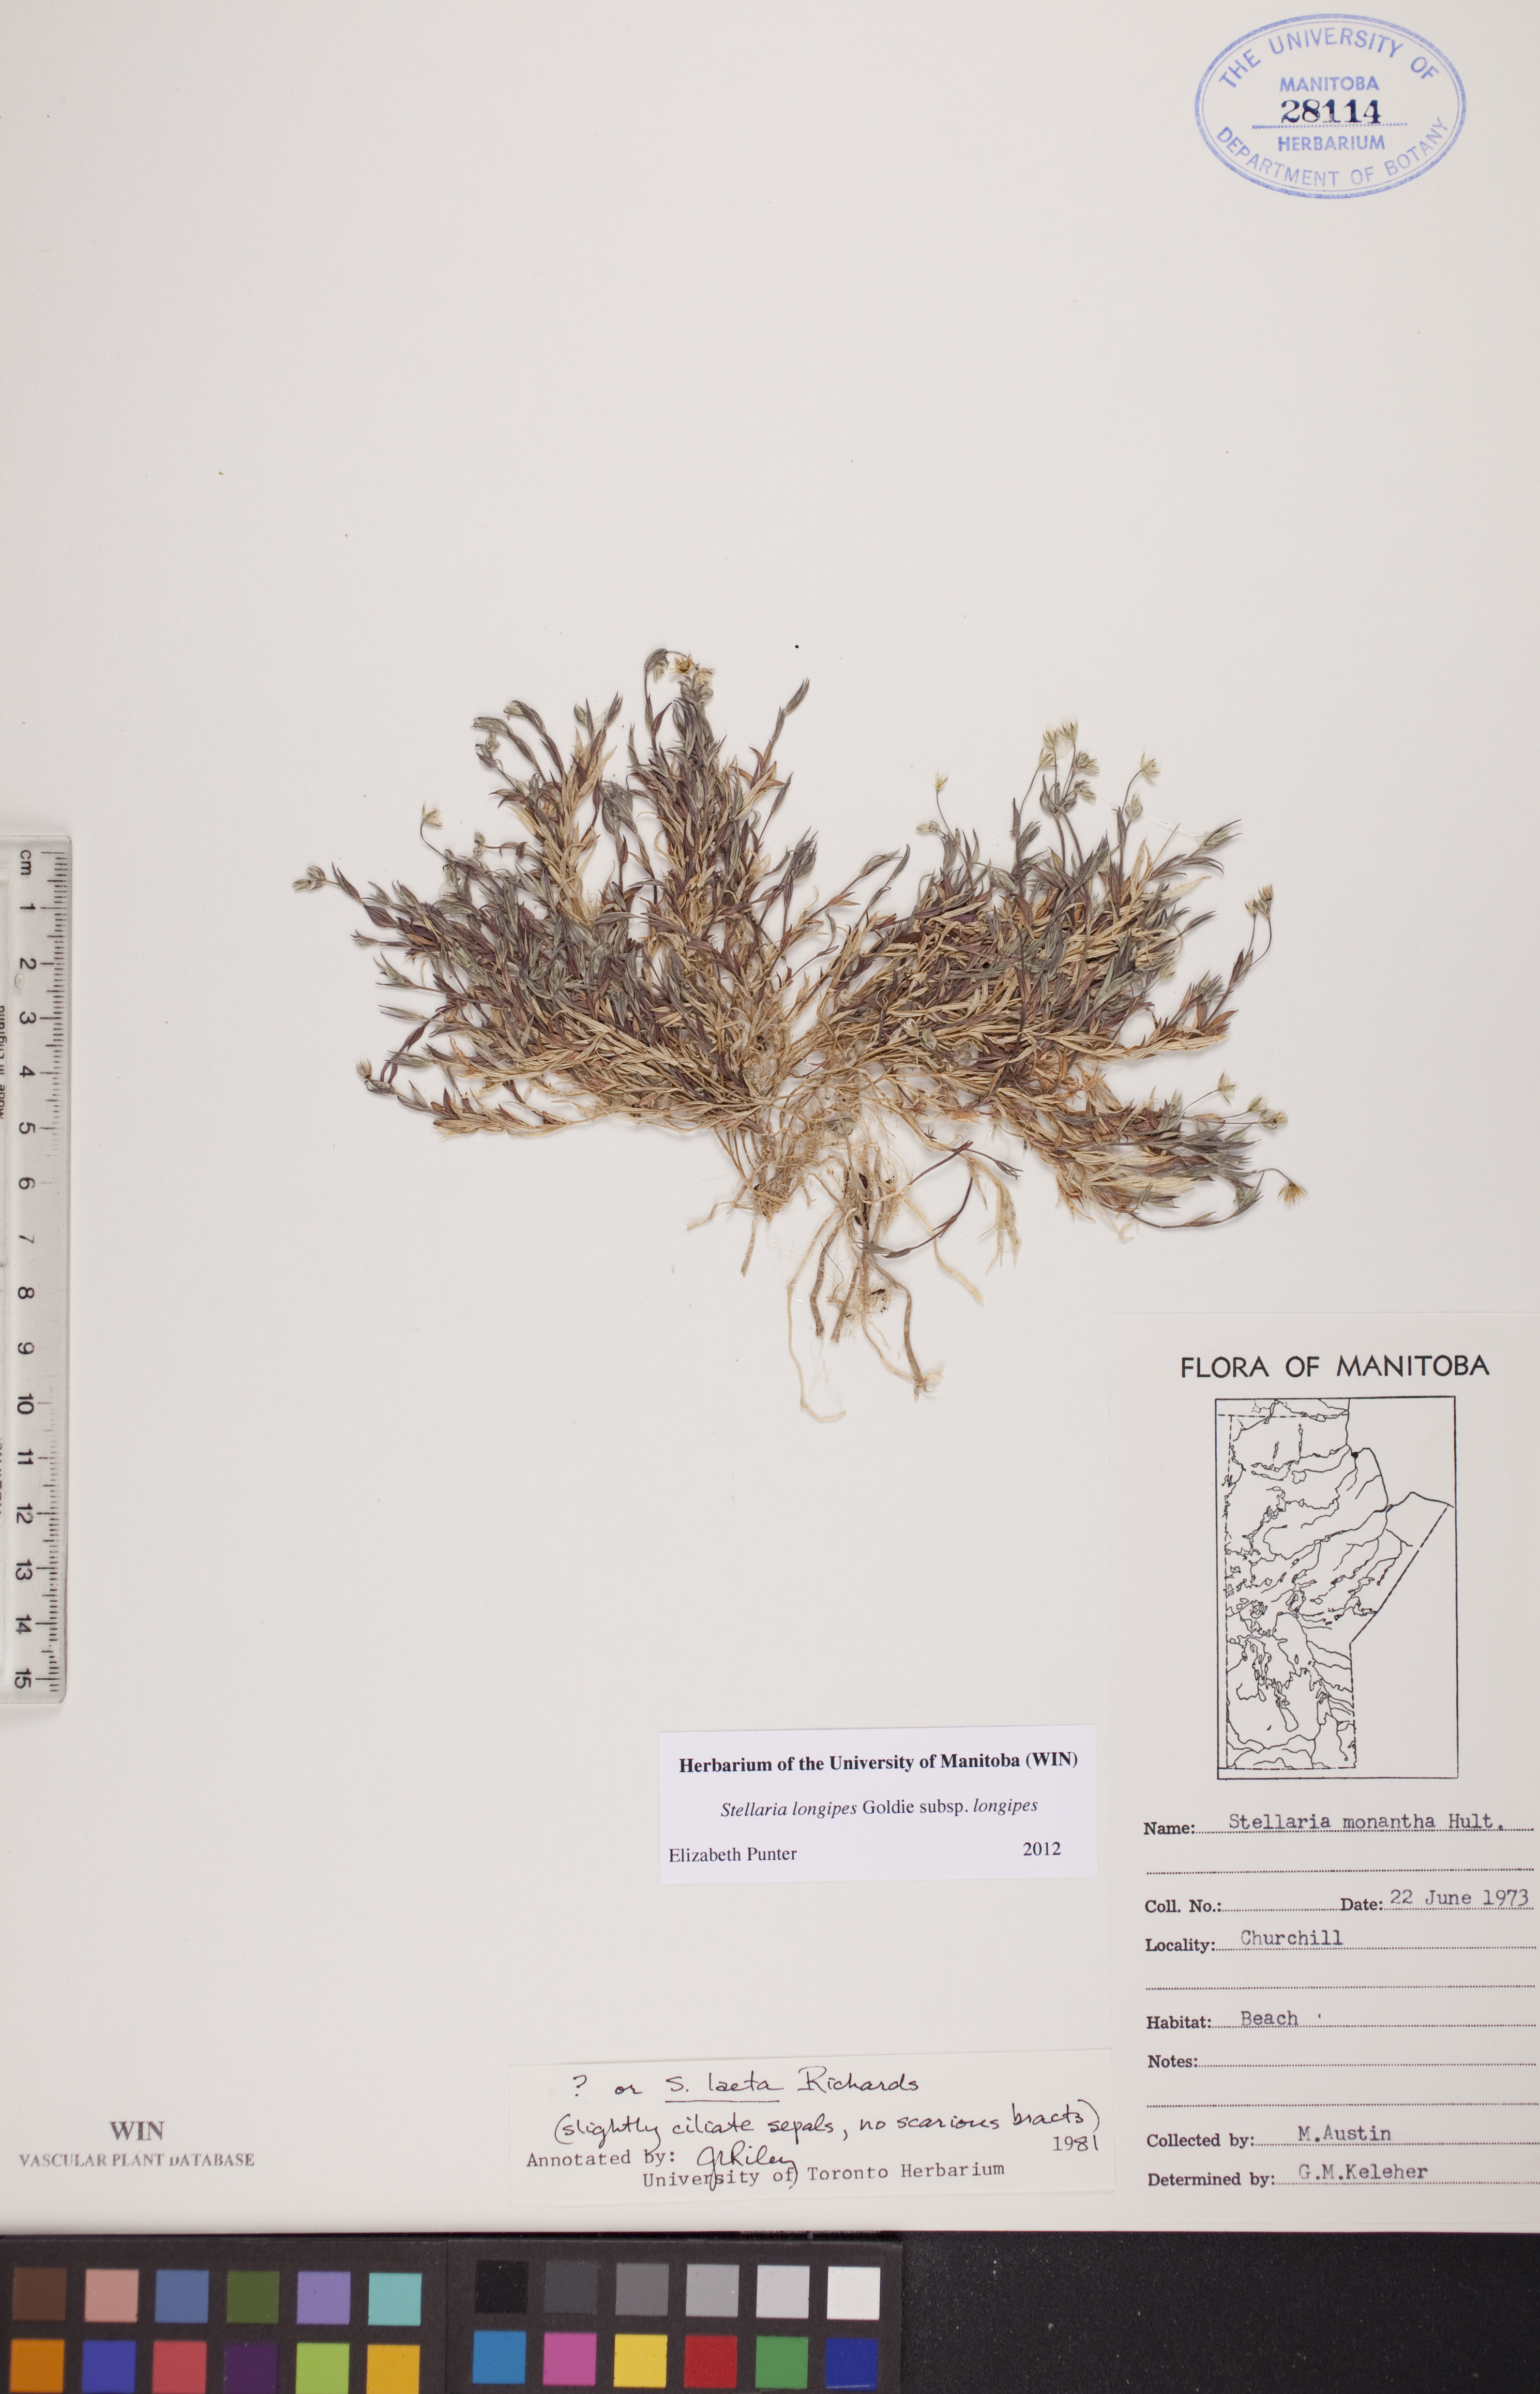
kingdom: Plantae
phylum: Tracheophyta
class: Magnoliopsida
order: Caryophyllales
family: Caryophyllaceae
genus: Stellaria
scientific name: Stellaria longipes
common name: Goldie's starwort
